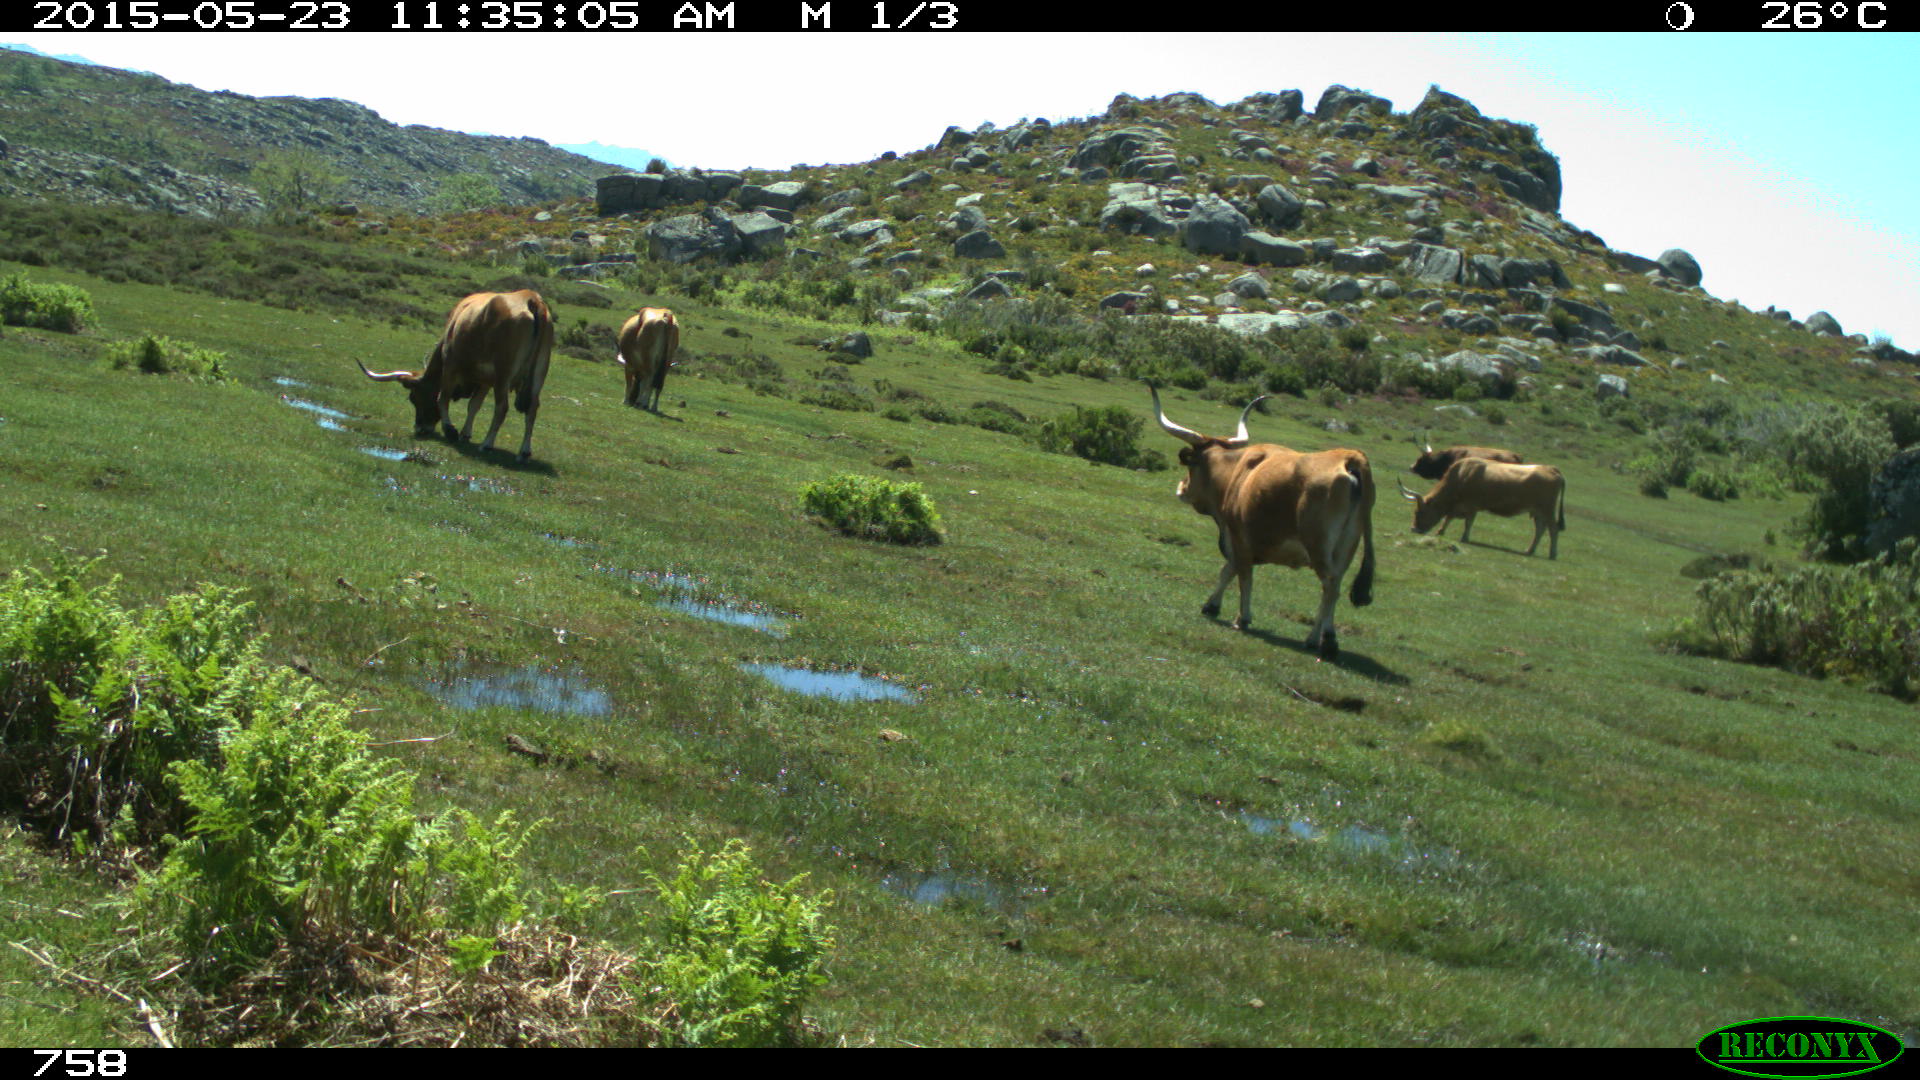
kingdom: Animalia
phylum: Chordata
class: Mammalia
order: Artiodactyla
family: Bovidae
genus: Bos
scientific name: Bos taurus
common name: Domesticated cattle
